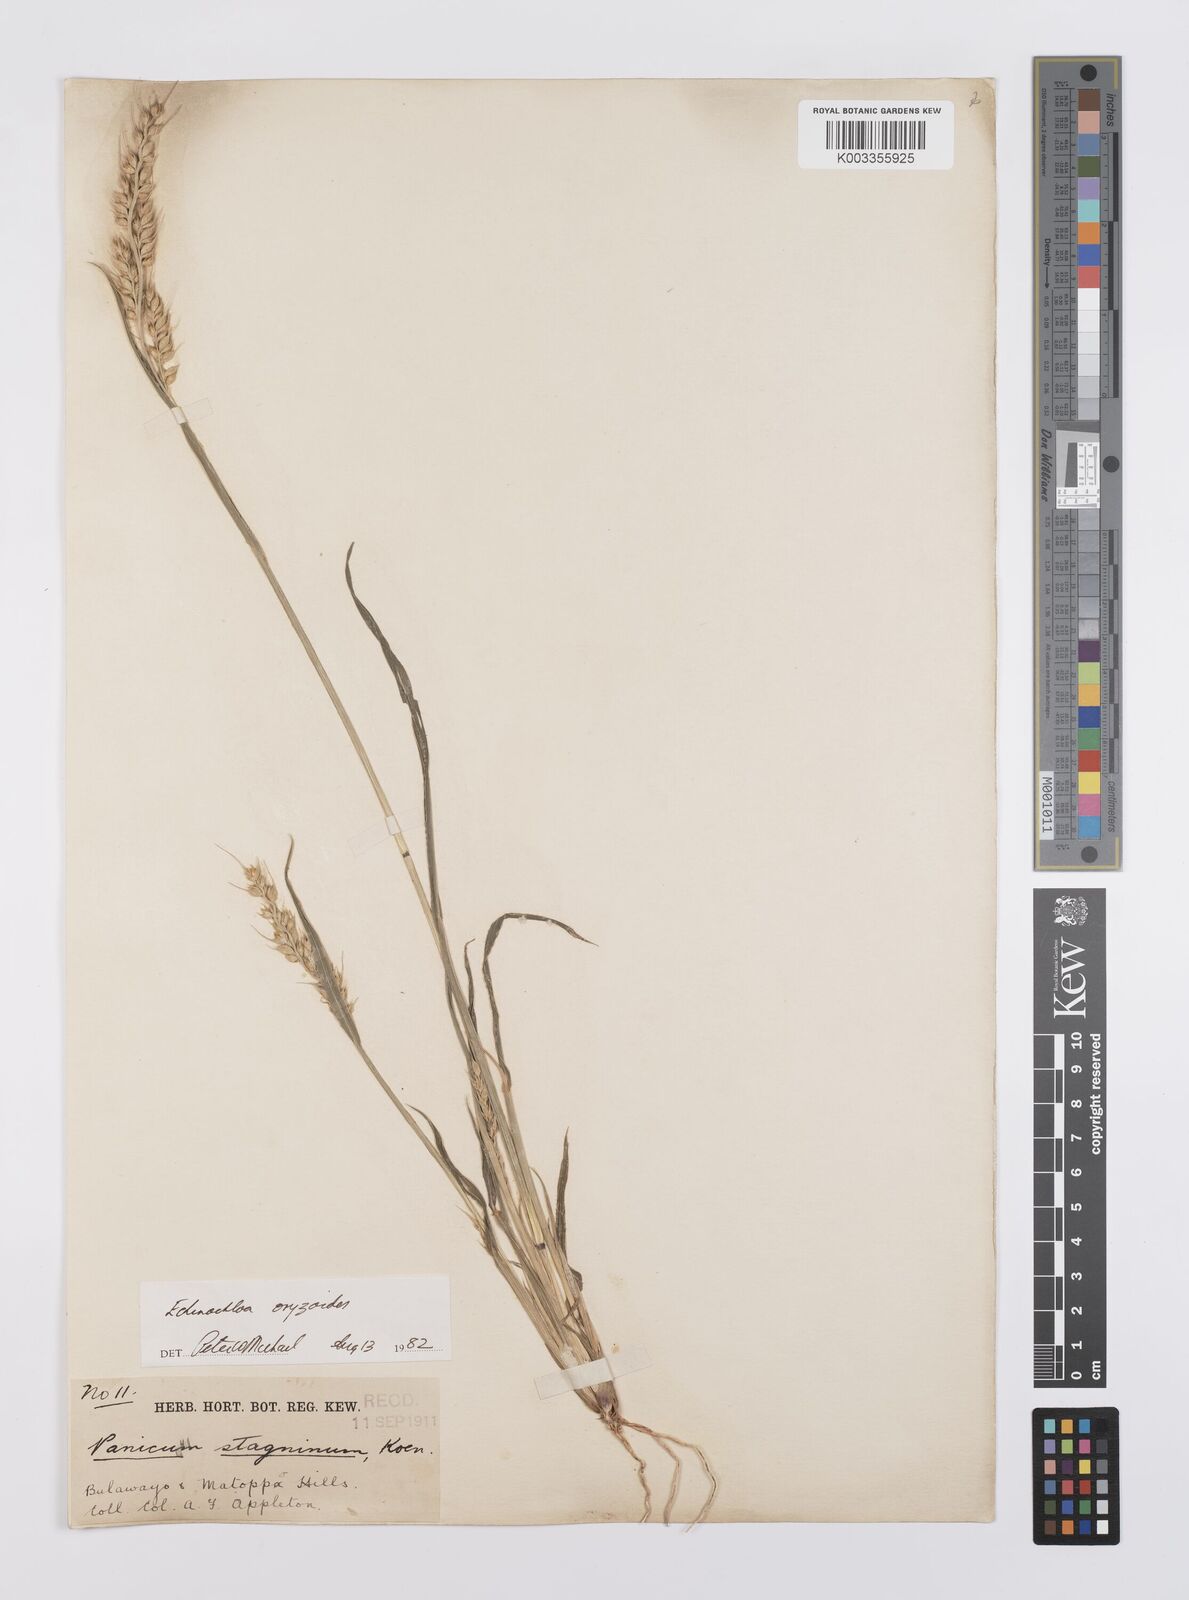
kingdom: Plantae
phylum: Tracheophyta
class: Liliopsida
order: Poales
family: Poaceae
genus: Echinochloa
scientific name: Echinochloa oryzoides
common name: Early water grass
